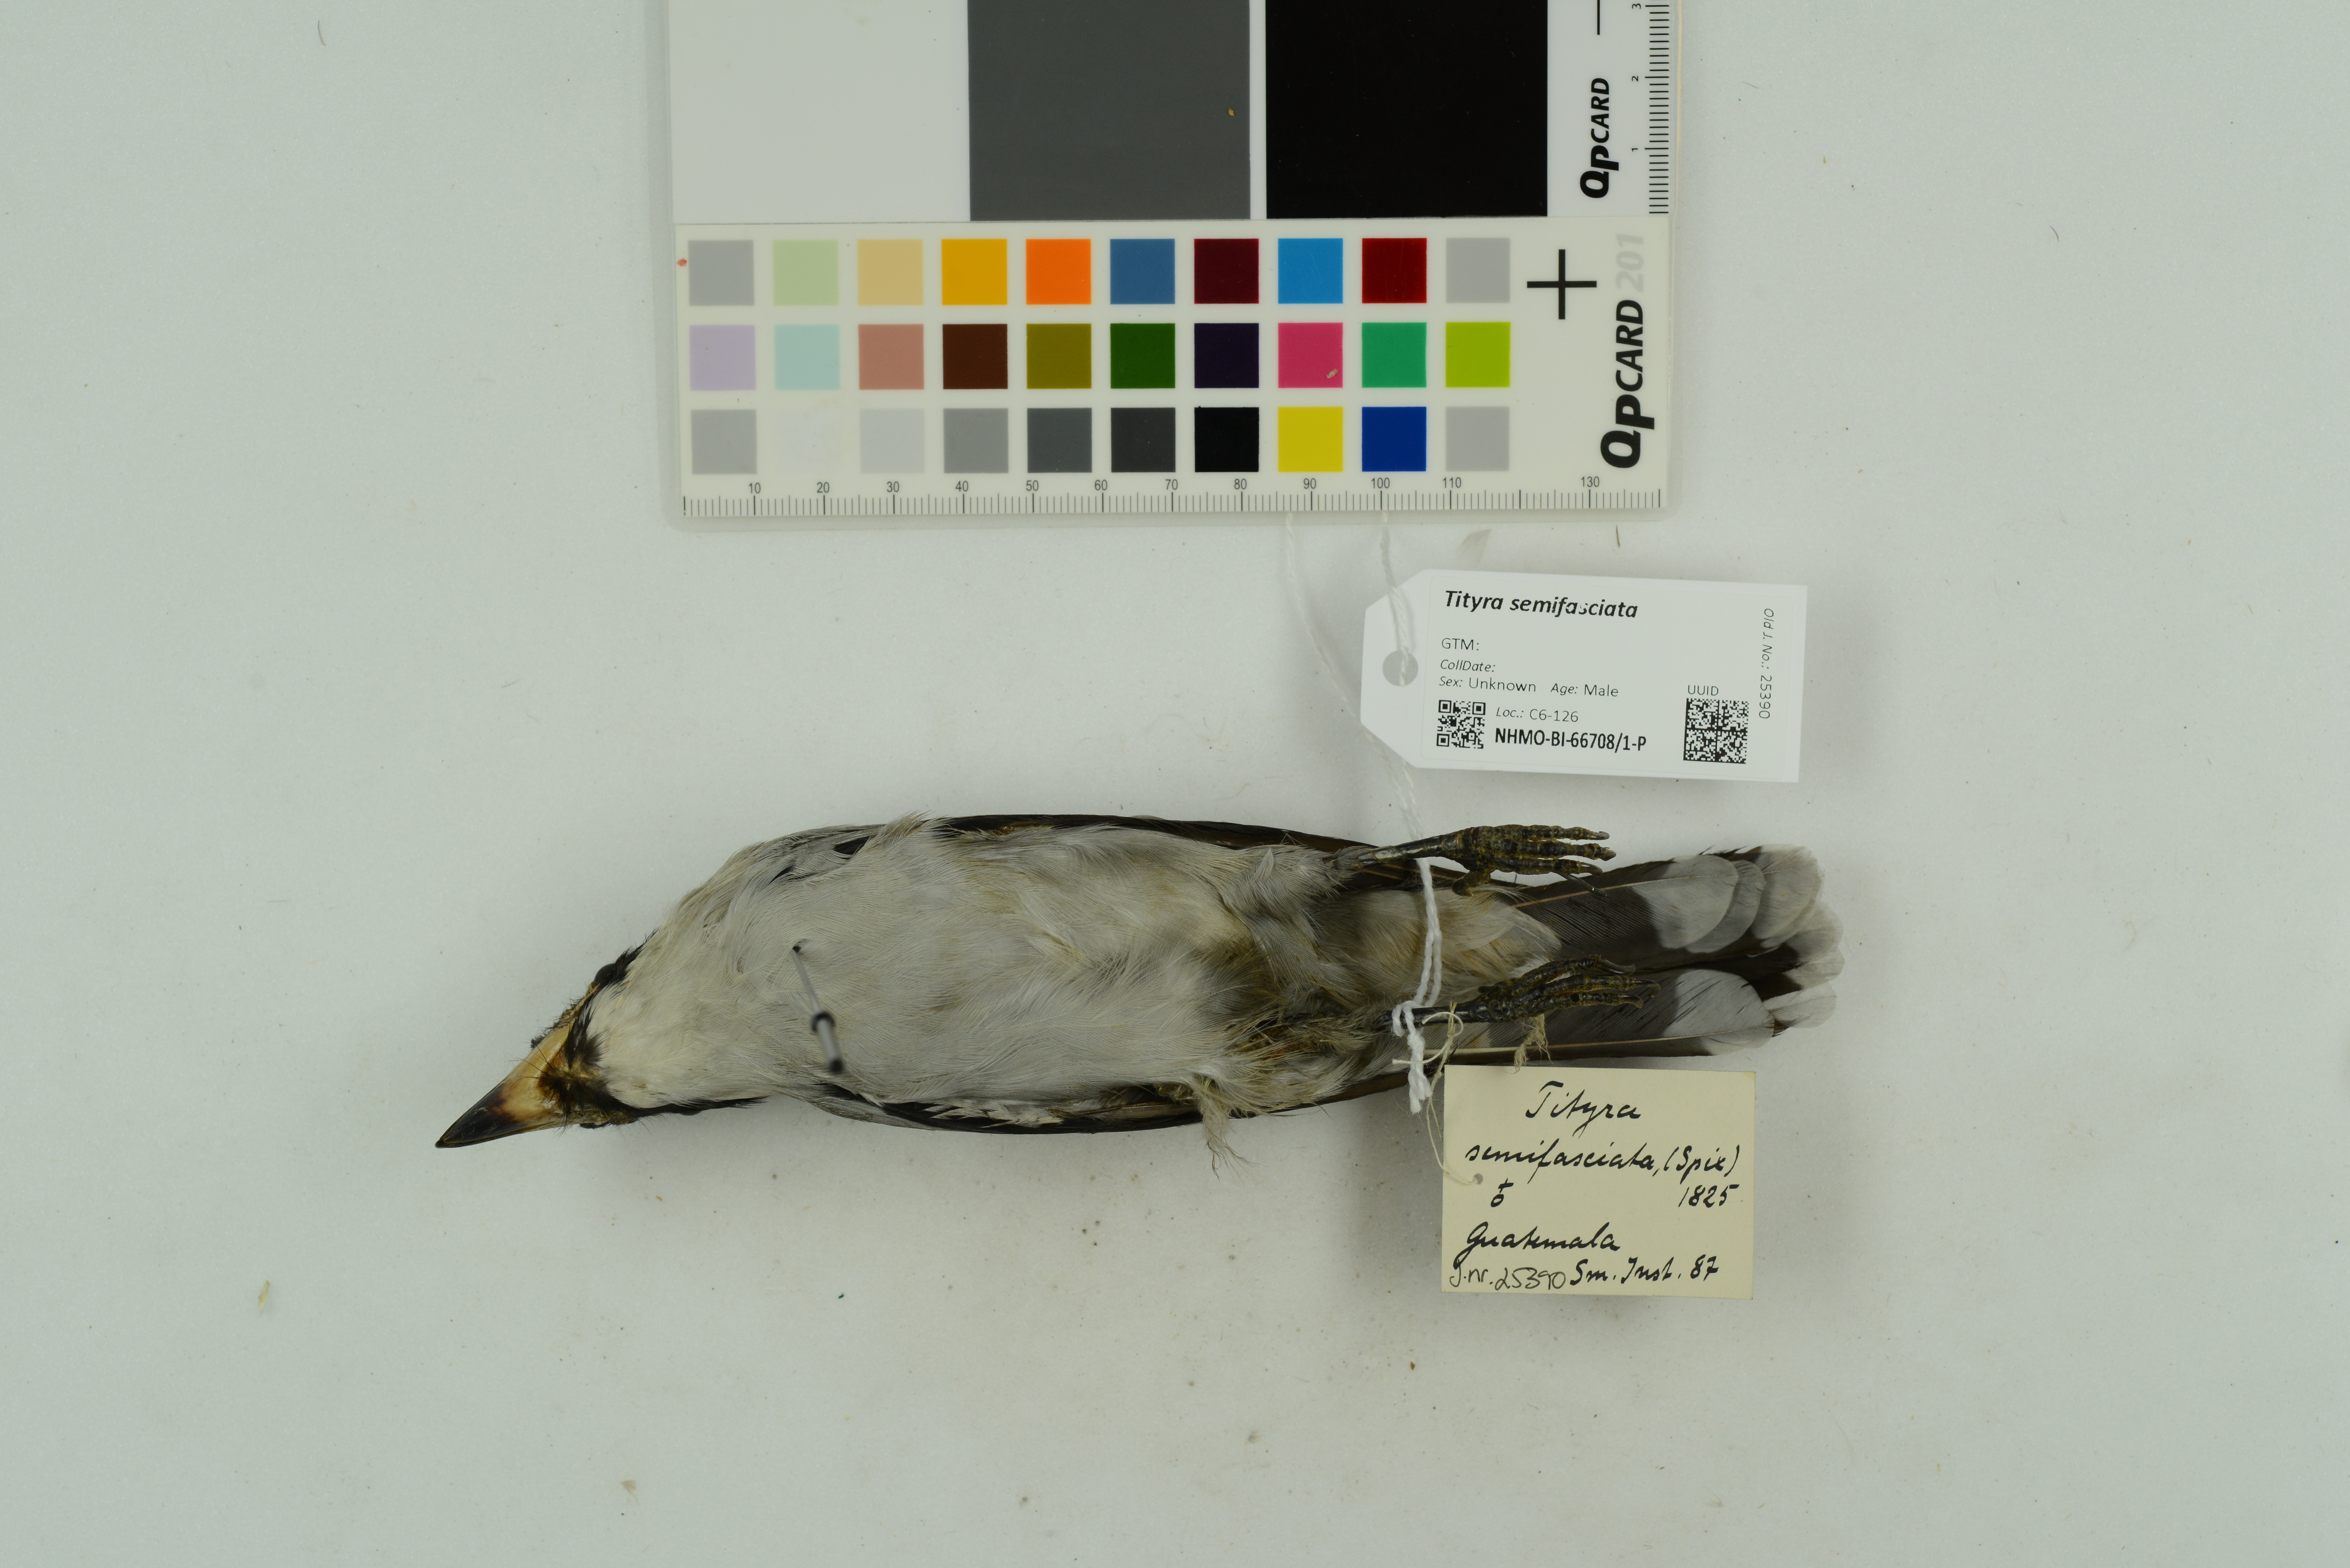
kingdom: Animalia
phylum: Chordata
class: Aves
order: Passeriformes
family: Cotingidae
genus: Tityra
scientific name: Tityra semifasciata
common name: Masked tityra
